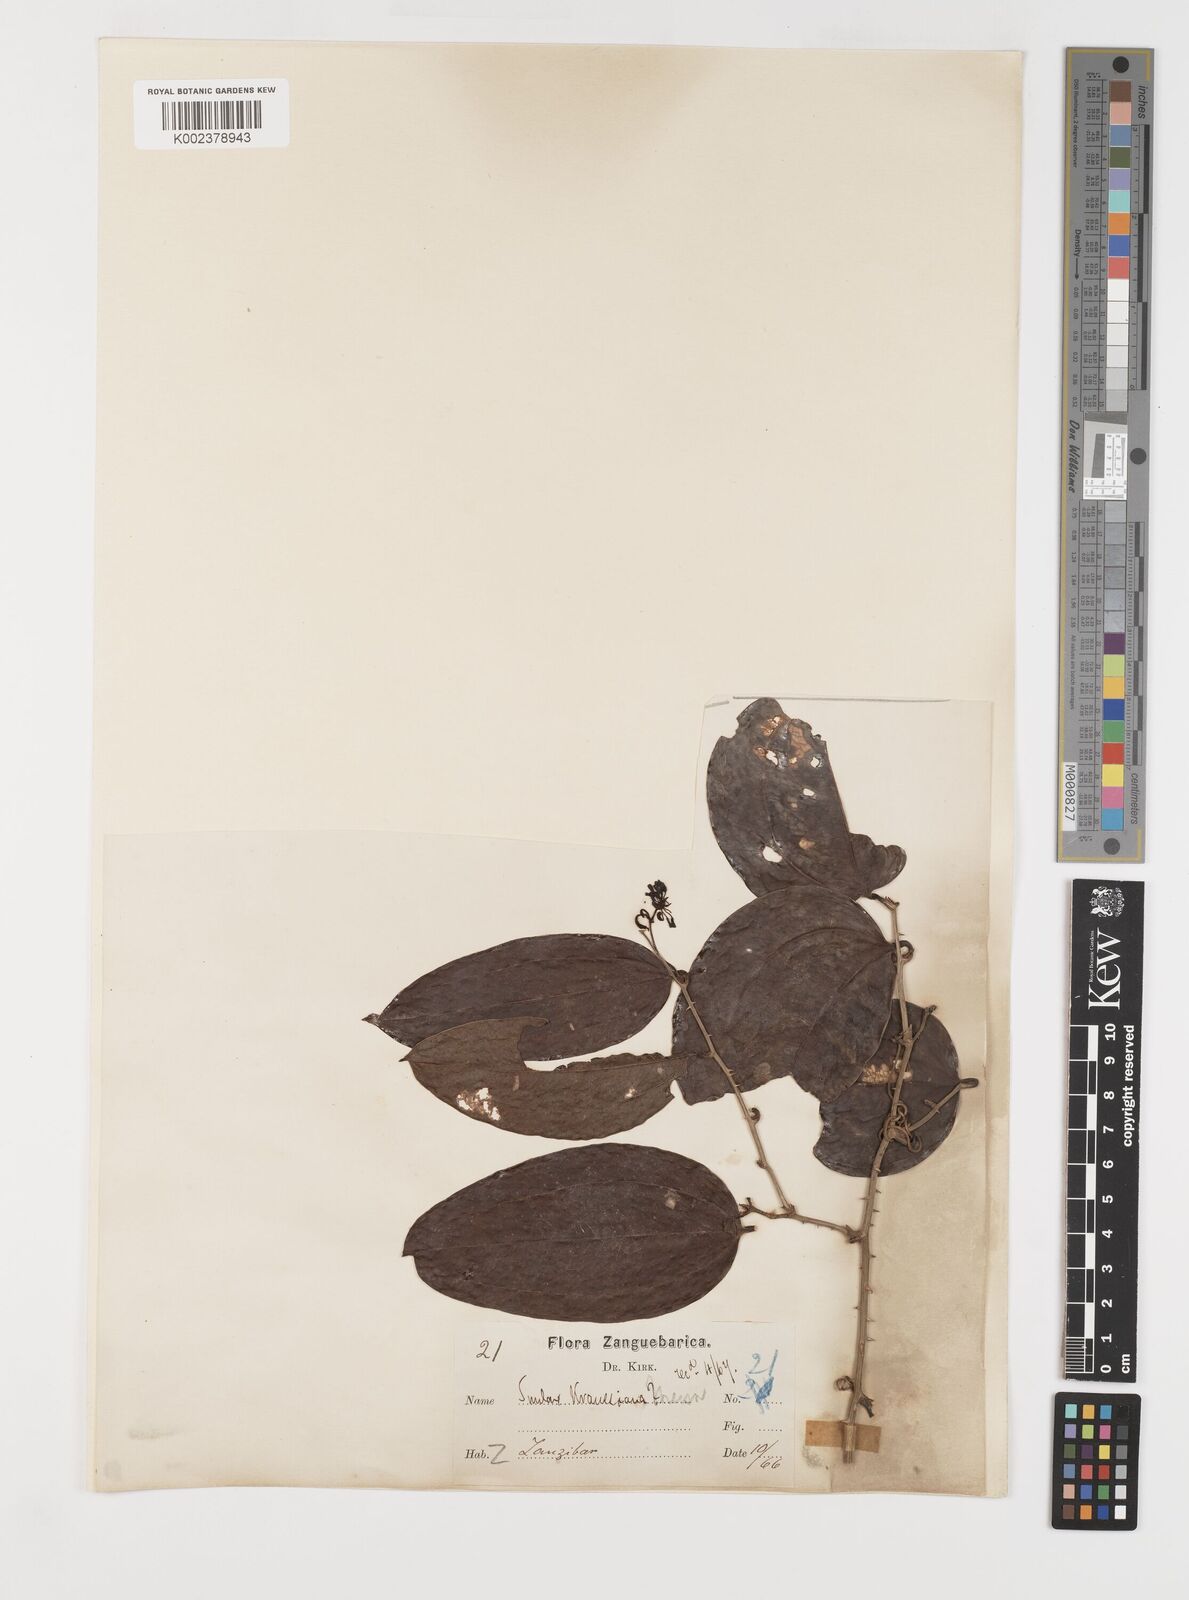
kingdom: Plantae
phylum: Tracheophyta
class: Liliopsida
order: Liliales
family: Smilacaceae
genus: Smilax
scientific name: Smilax anceps
